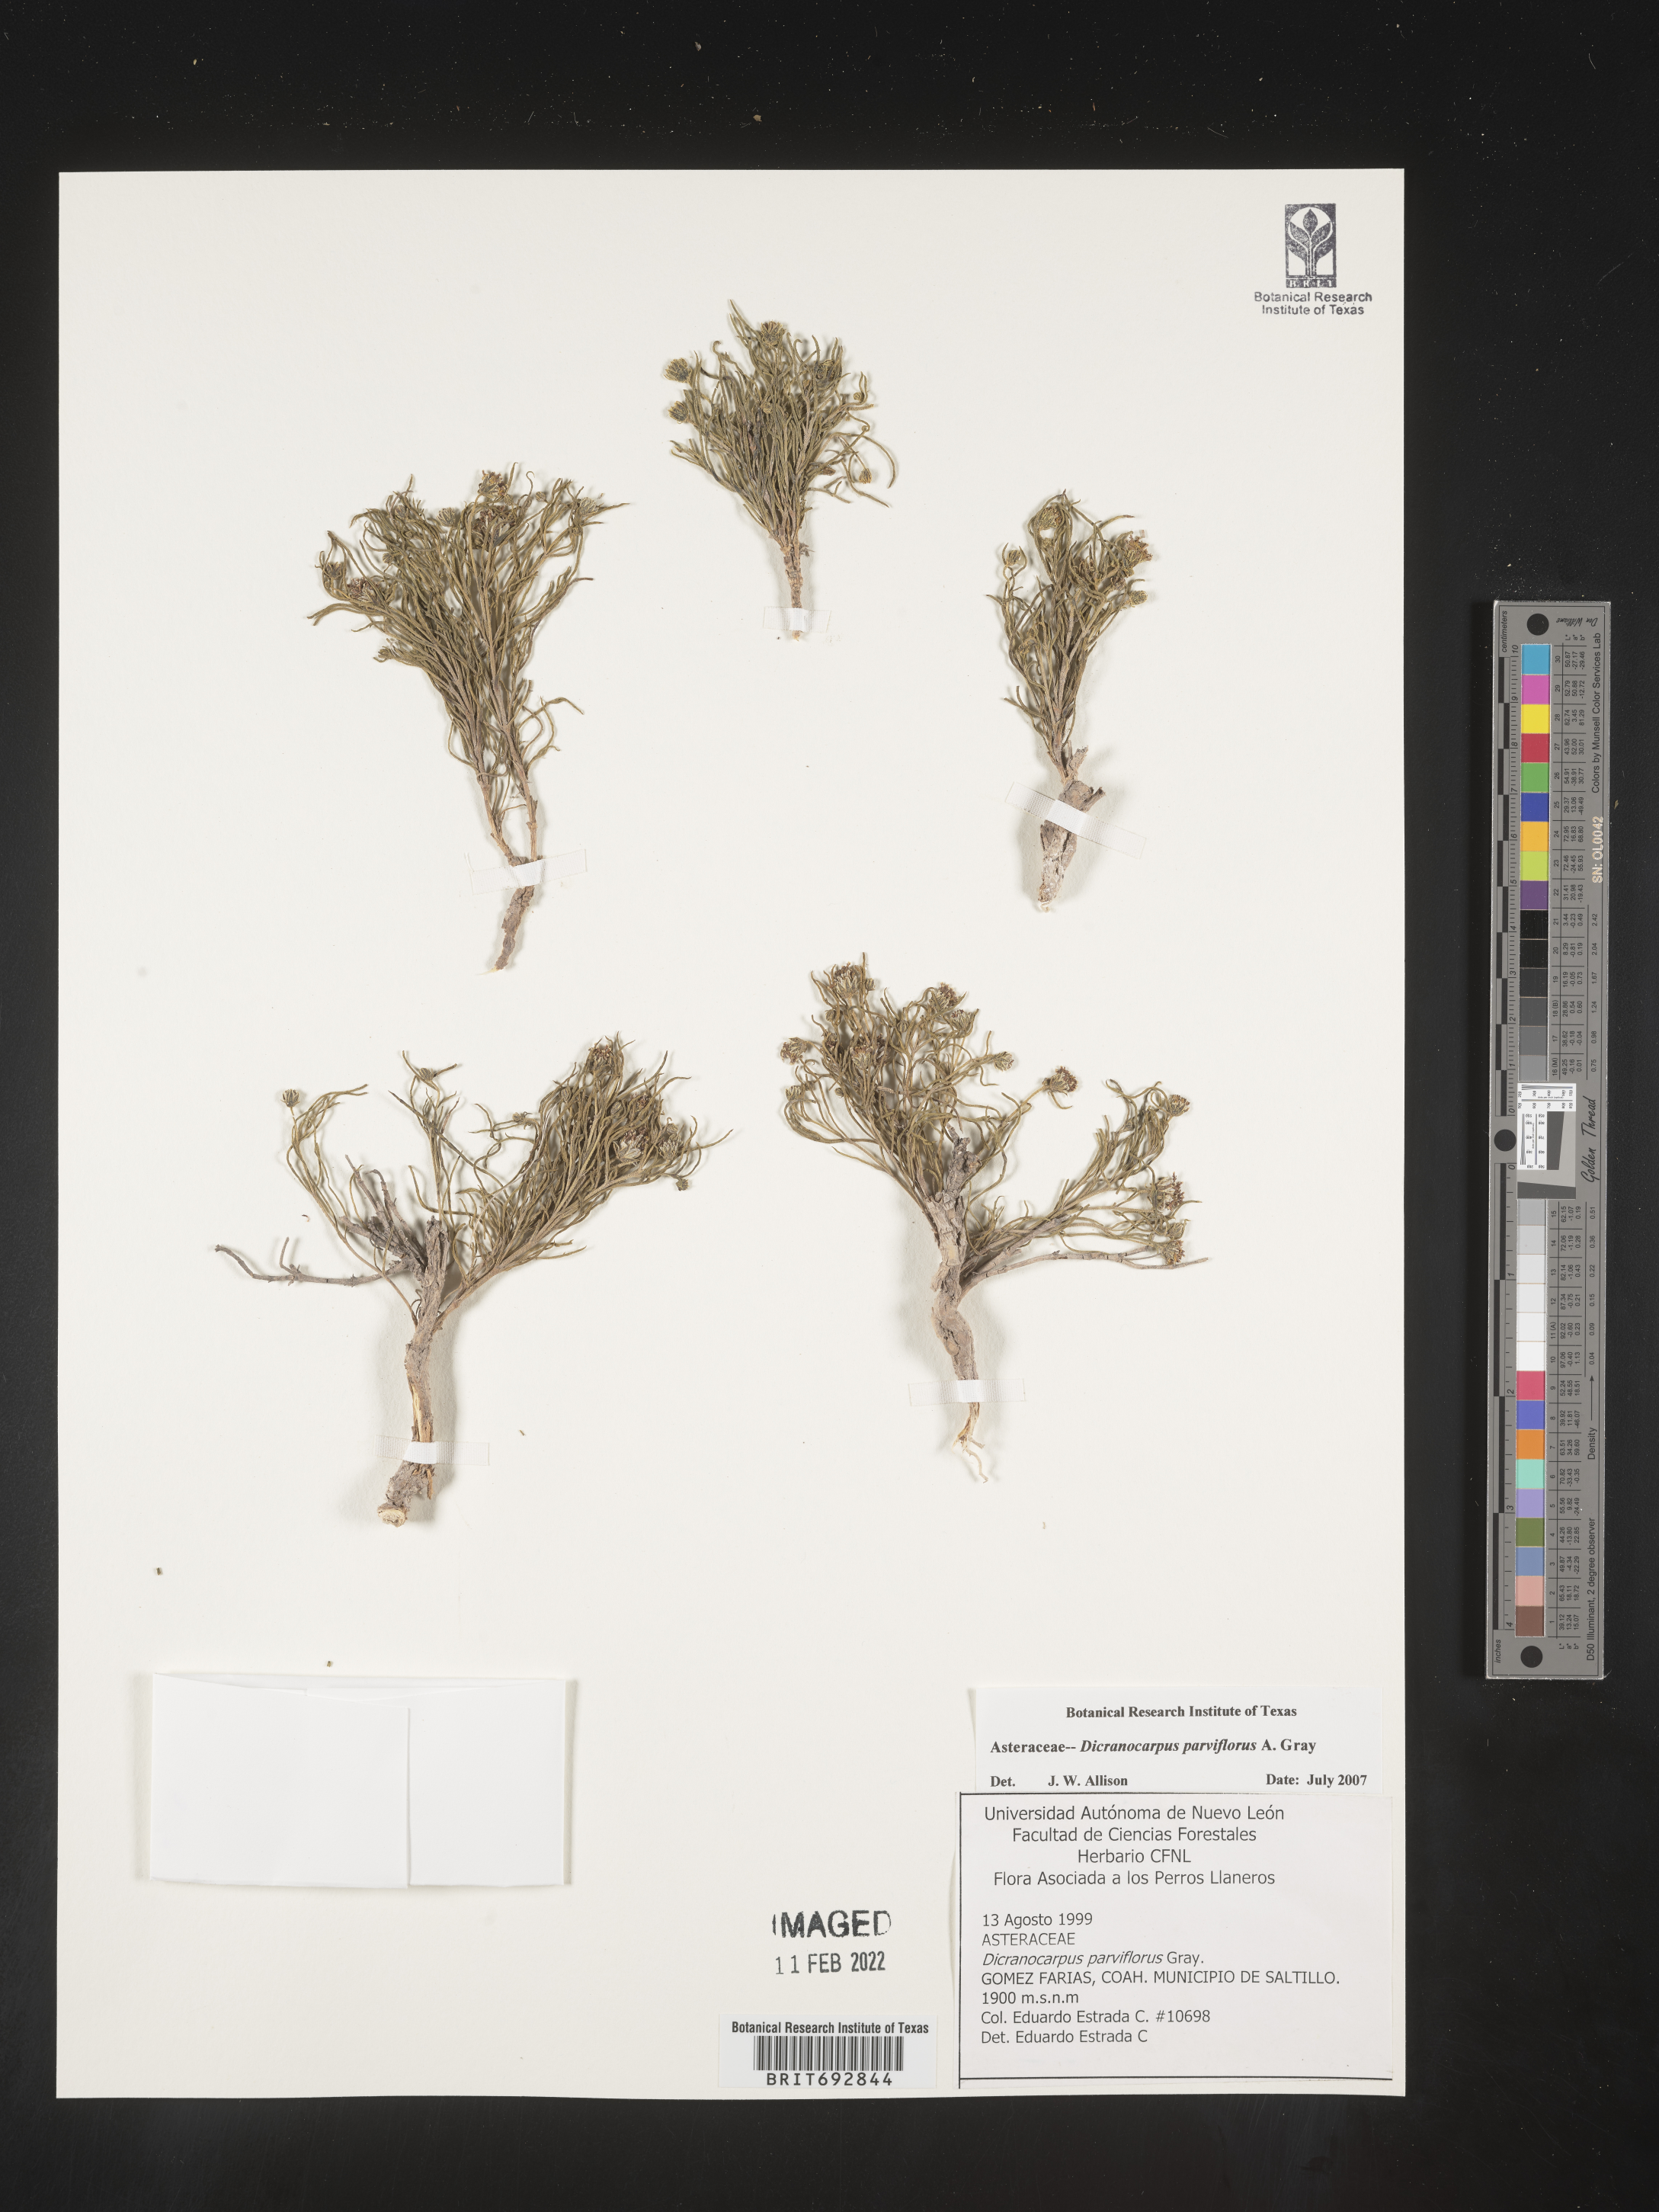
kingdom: Plantae
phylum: Tracheophyta
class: Magnoliopsida
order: Asterales
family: Asteraceae
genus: Dicranocarpus
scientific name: Dicranocarpus
